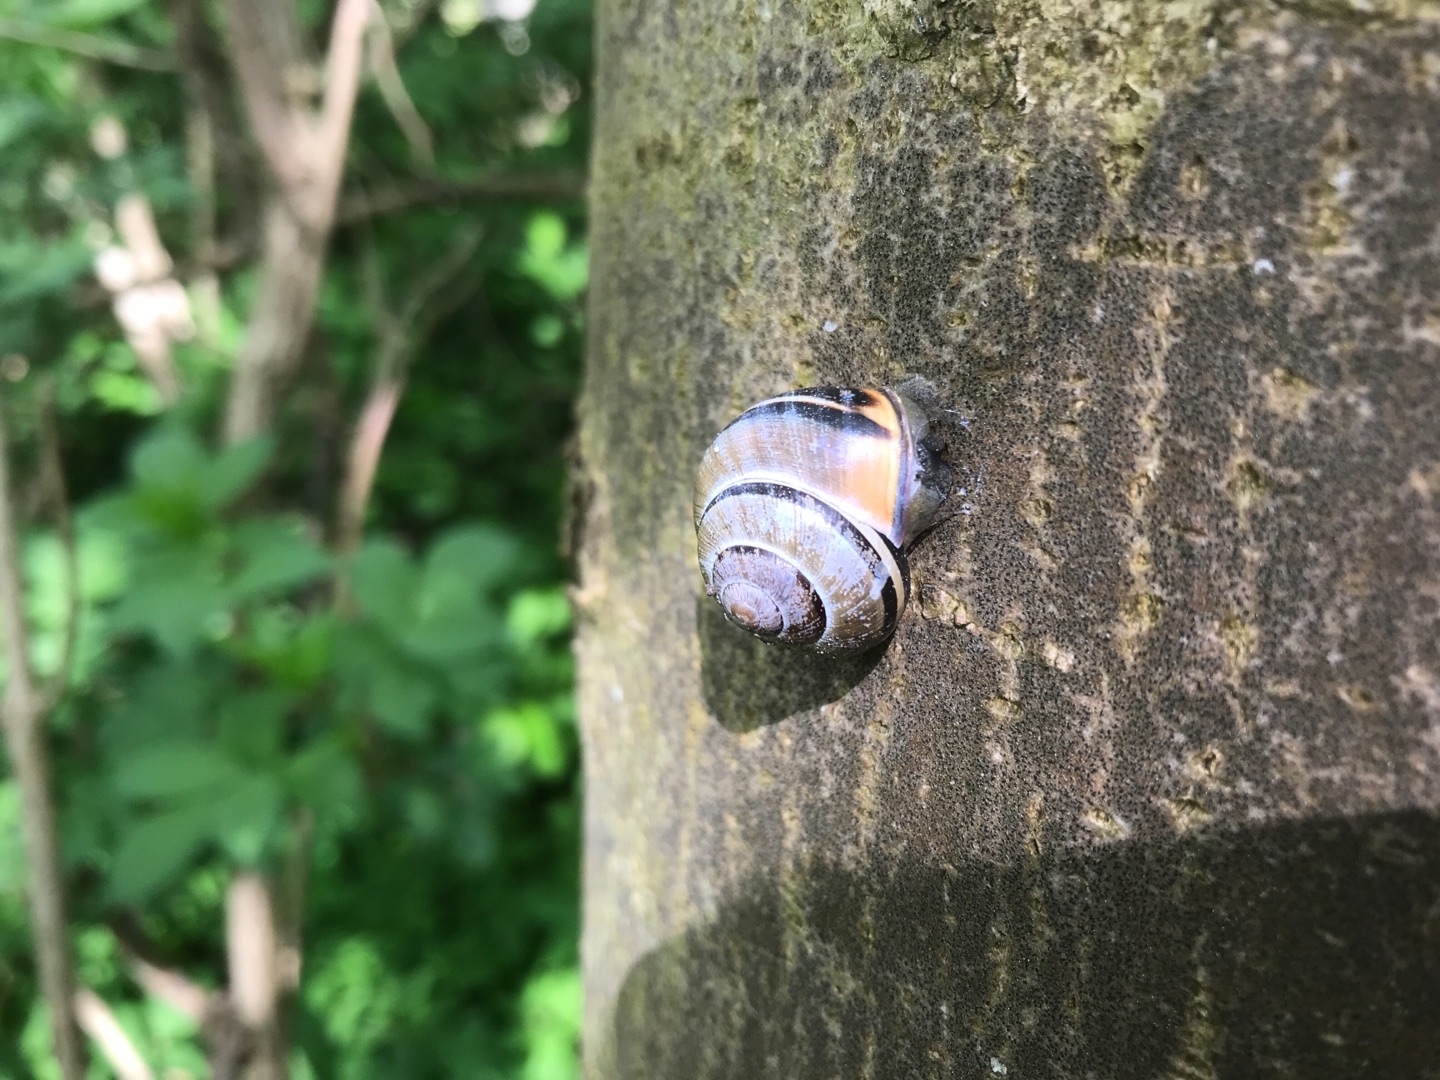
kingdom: Animalia
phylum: Mollusca
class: Gastropoda
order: Stylommatophora
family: Helicidae
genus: Cepaea
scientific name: Cepaea nemoralis
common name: Lundsnegl
